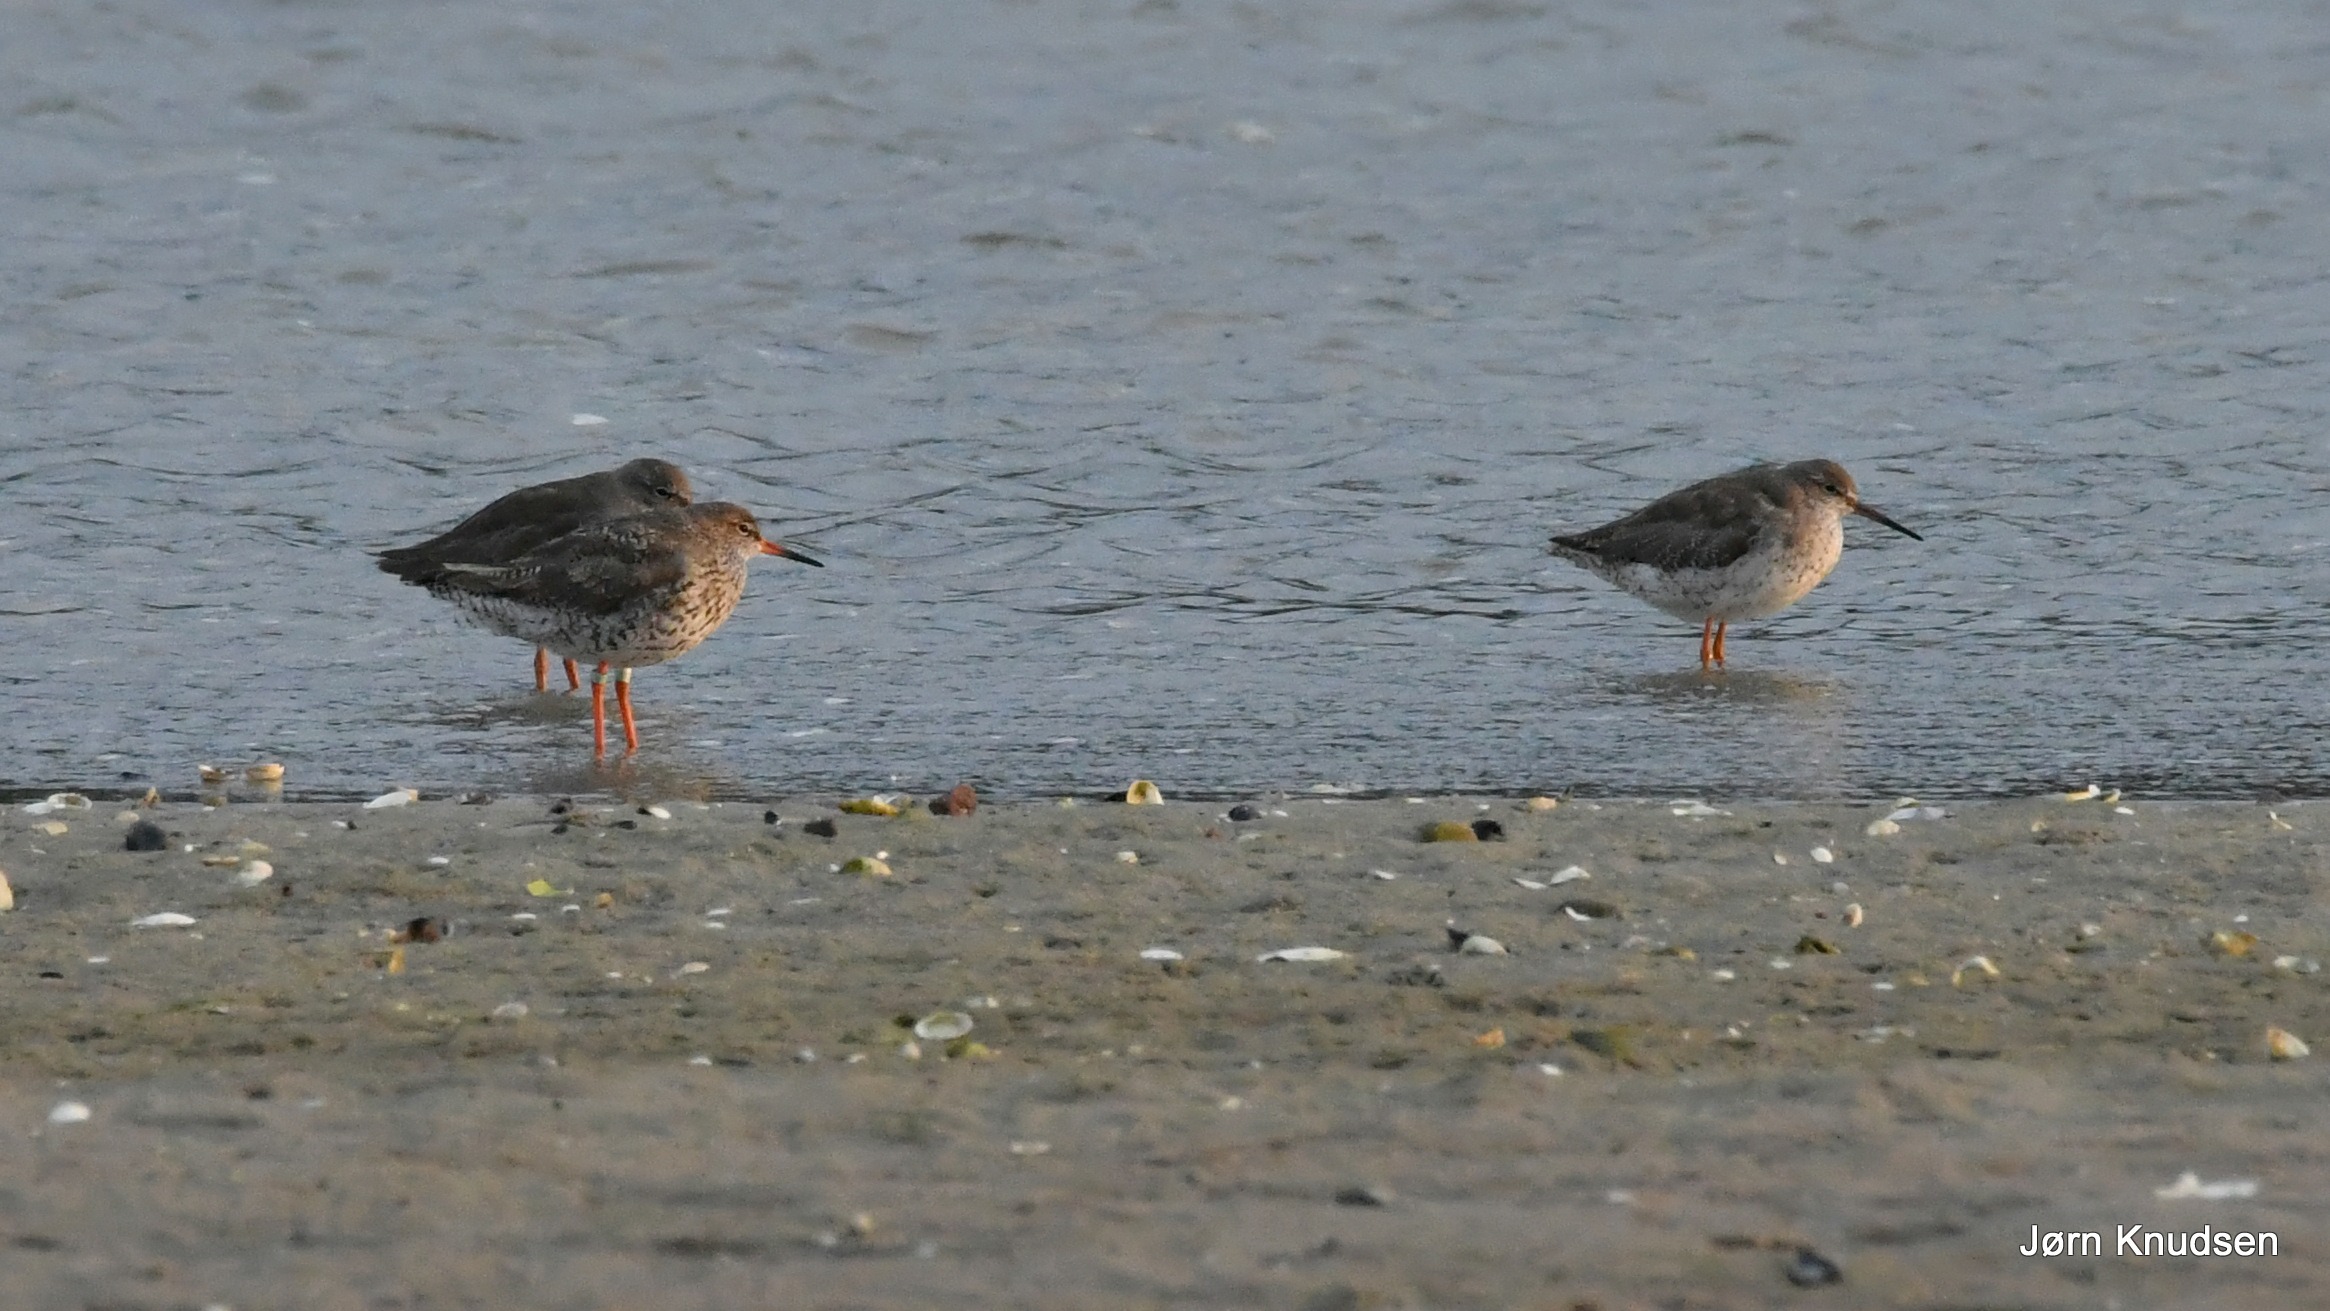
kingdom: Animalia
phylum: Chordata
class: Aves
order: Charadriiformes
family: Scolopacidae
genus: Tringa
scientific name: Tringa totanus
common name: Rødben
